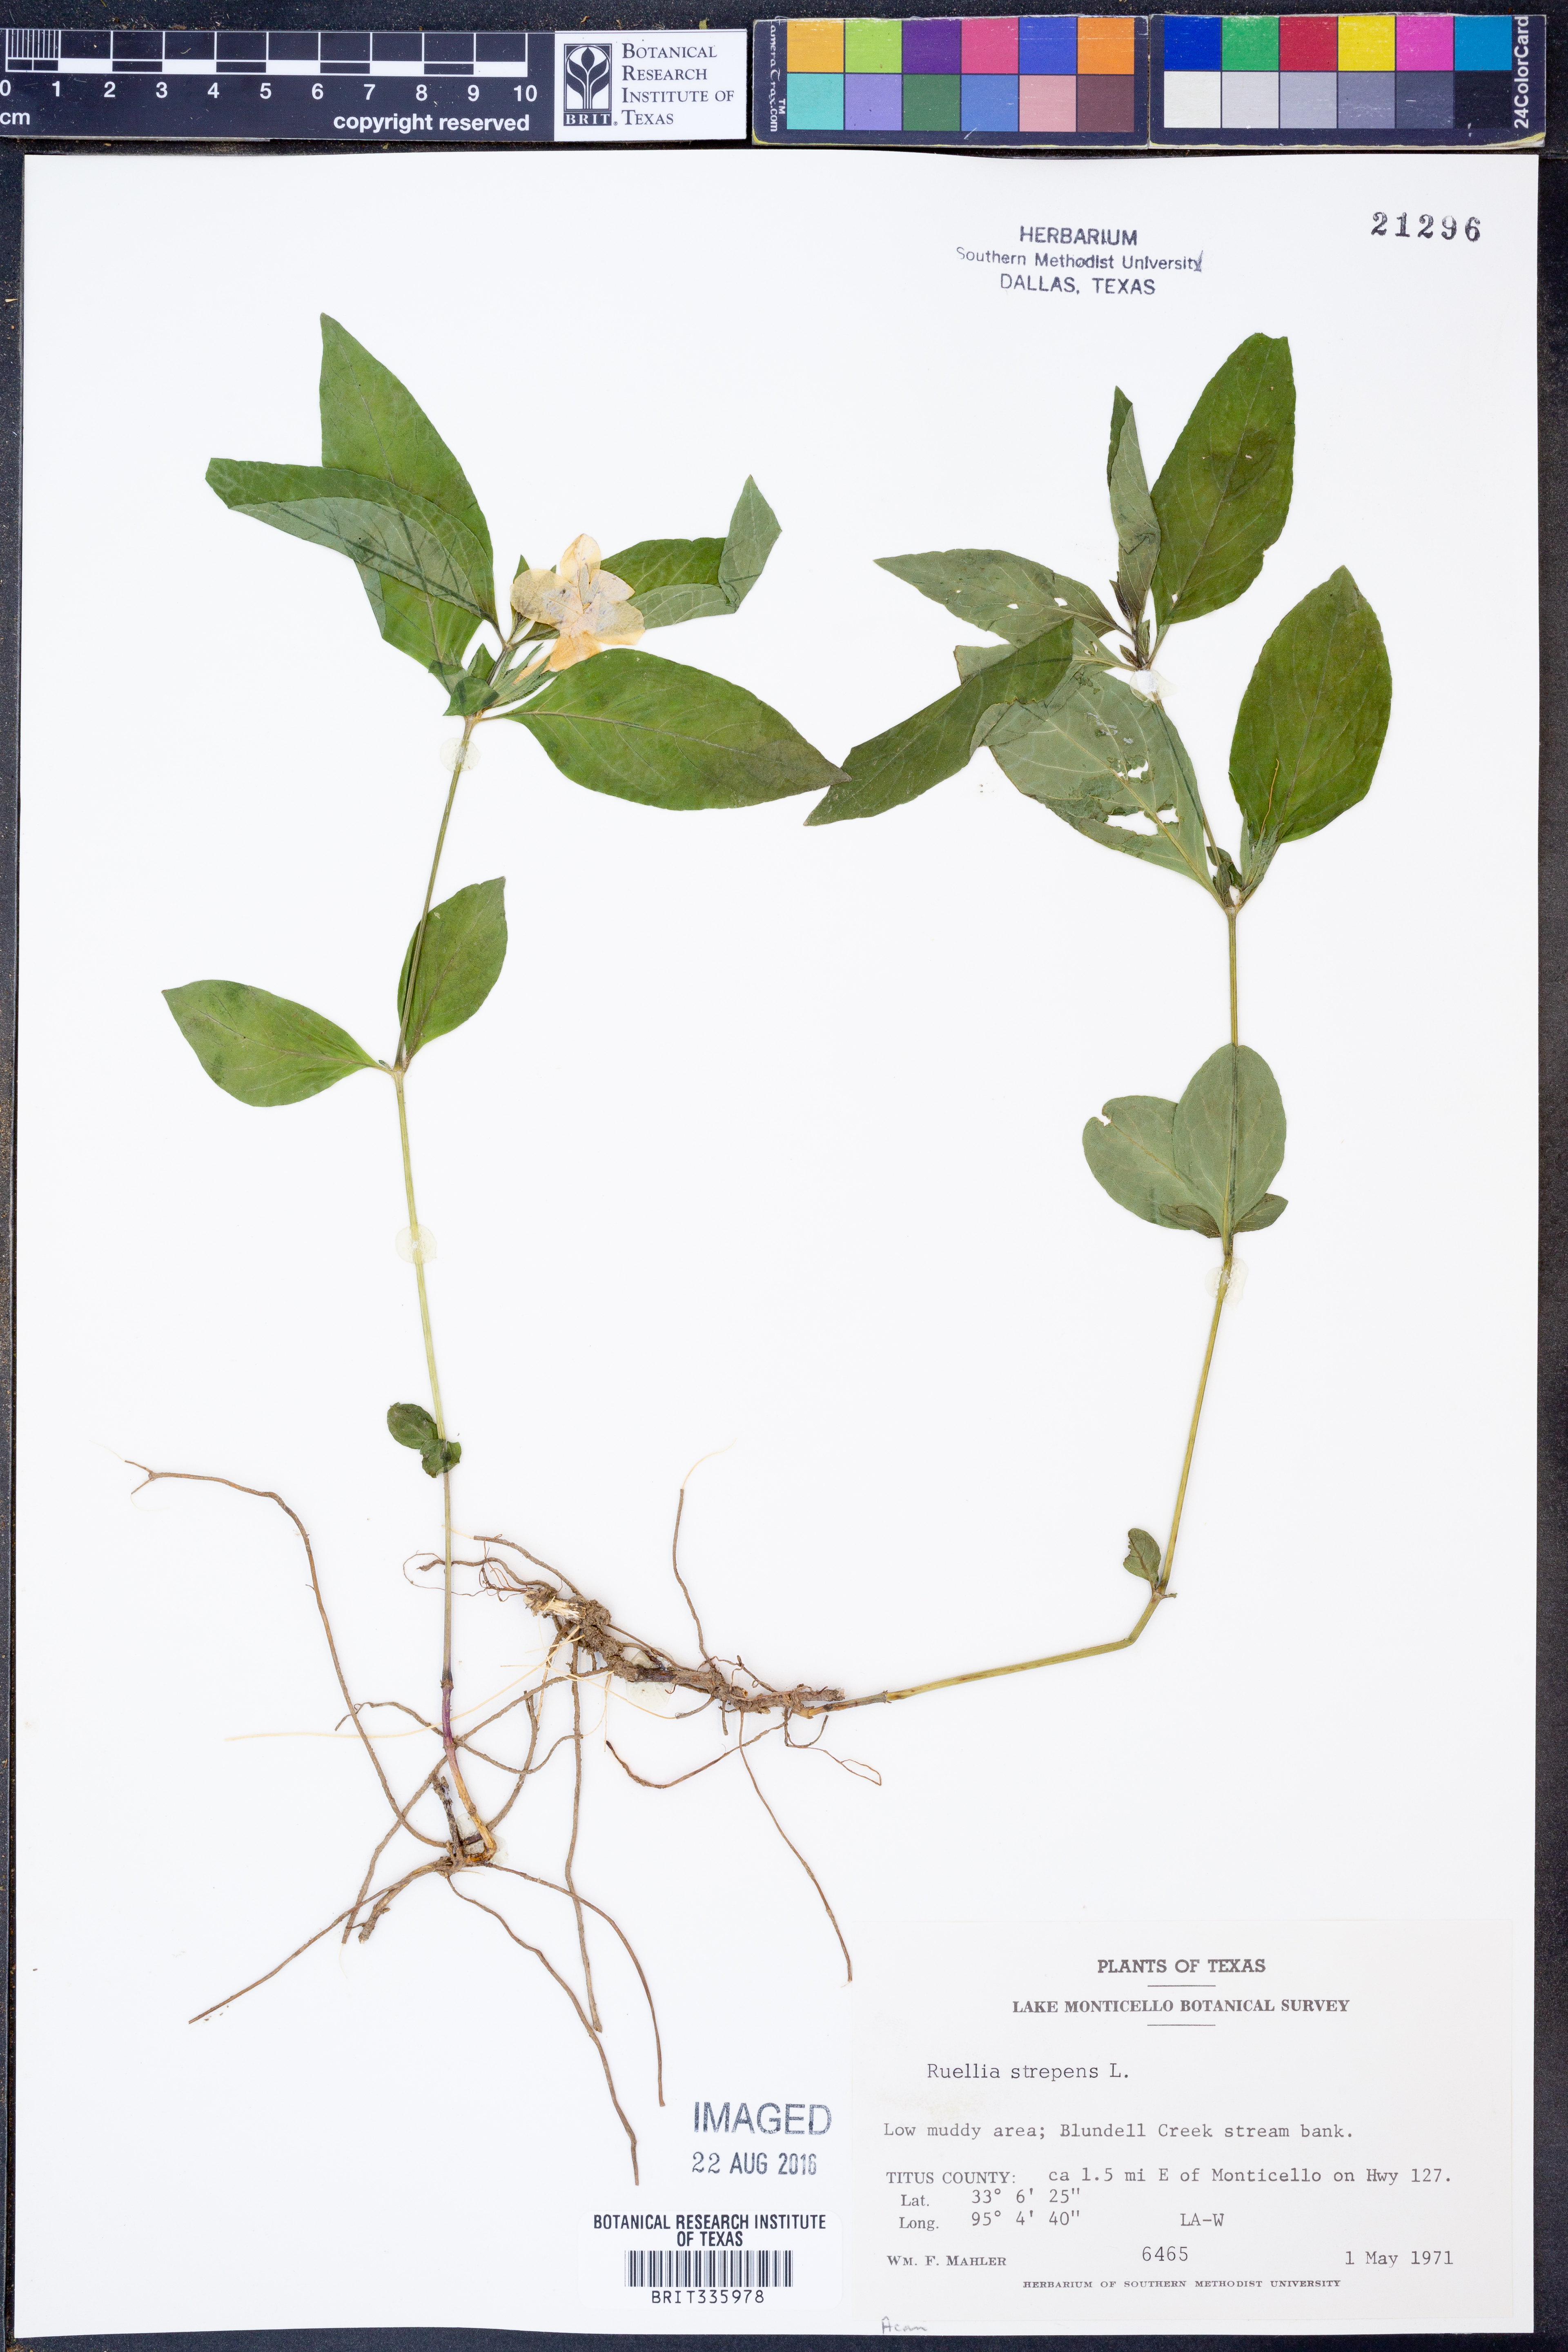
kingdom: Plantae
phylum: Tracheophyta
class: Magnoliopsida
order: Lamiales
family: Acanthaceae
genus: Ruellia
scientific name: Ruellia strepens
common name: Limestone wild petunia
